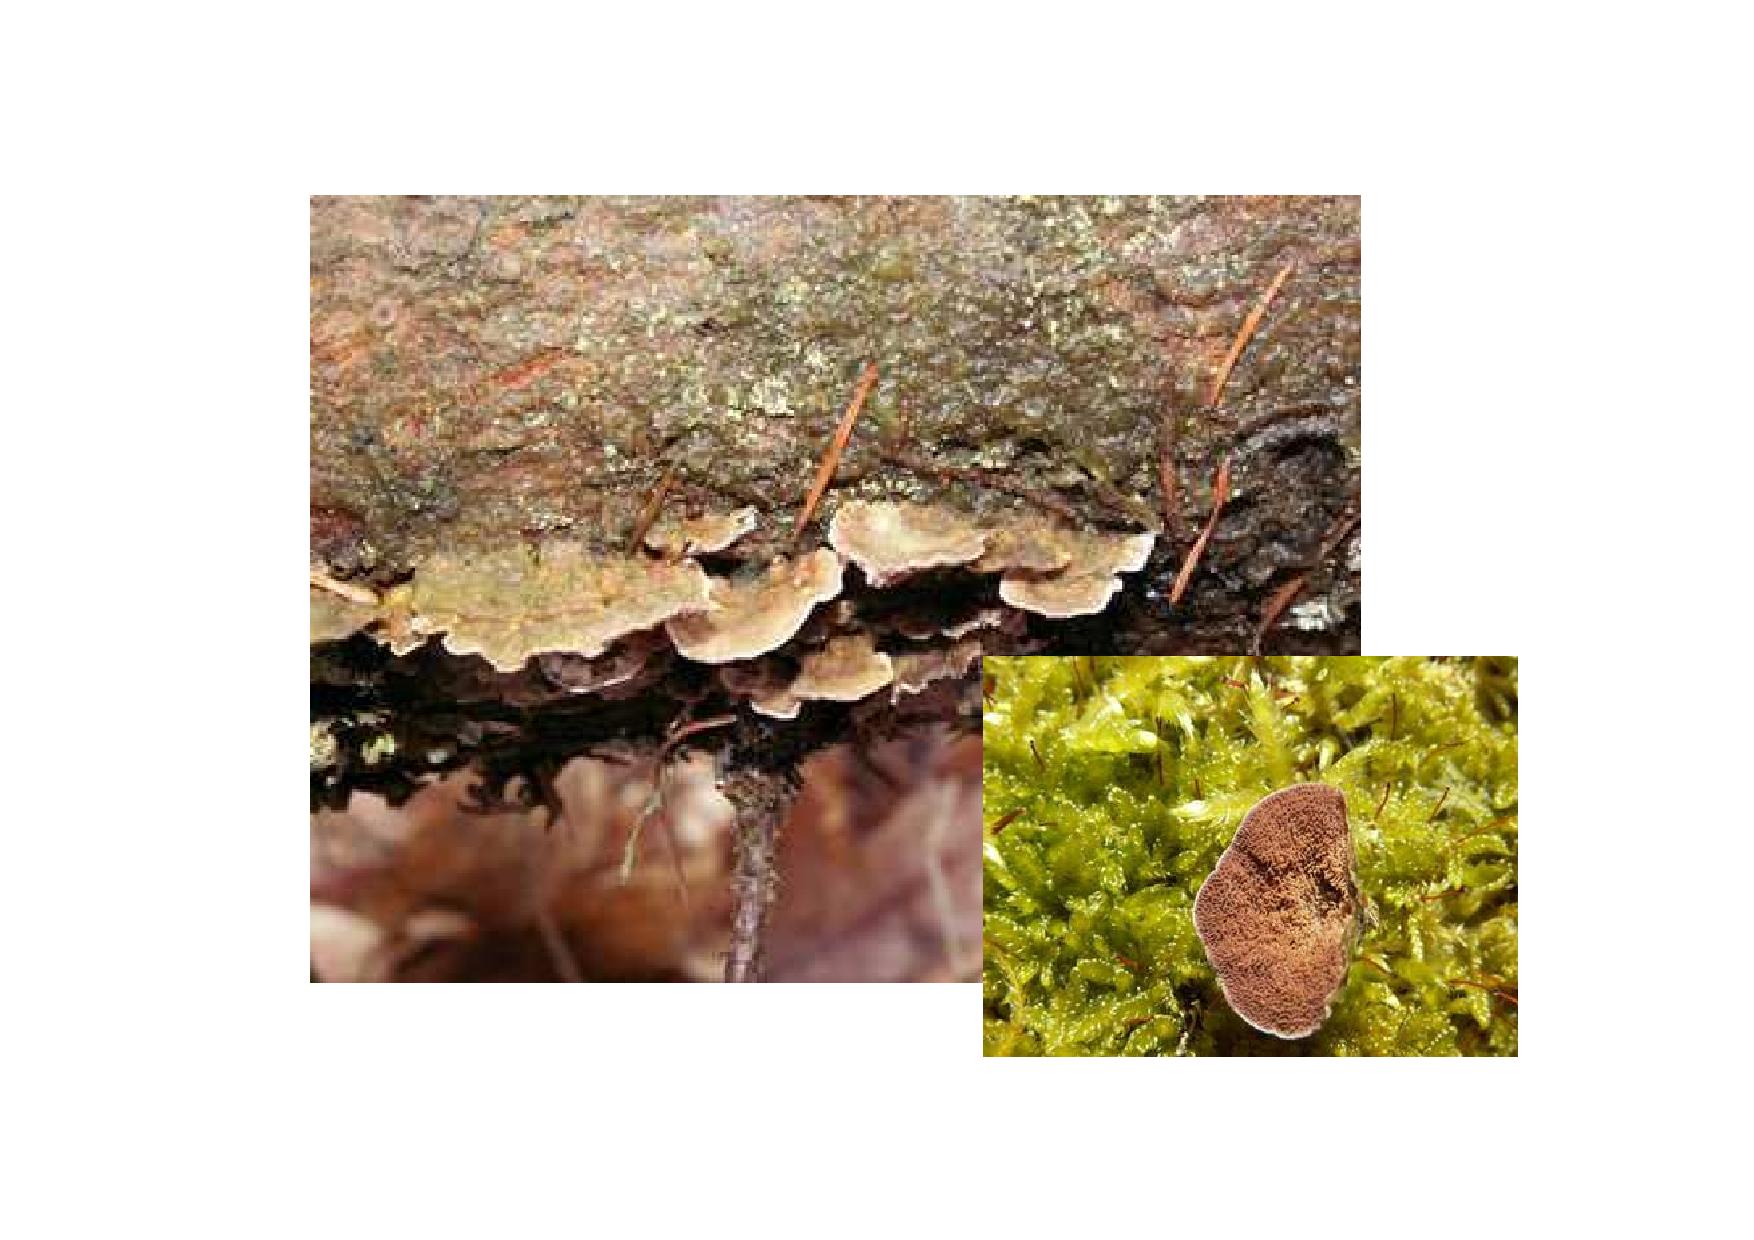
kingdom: Fungi
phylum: Basidiomycota
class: Agaricomycetes
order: Hymenochaetales
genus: Trichaptum
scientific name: Trichaptum abietinum
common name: almindelig violporesvamp
